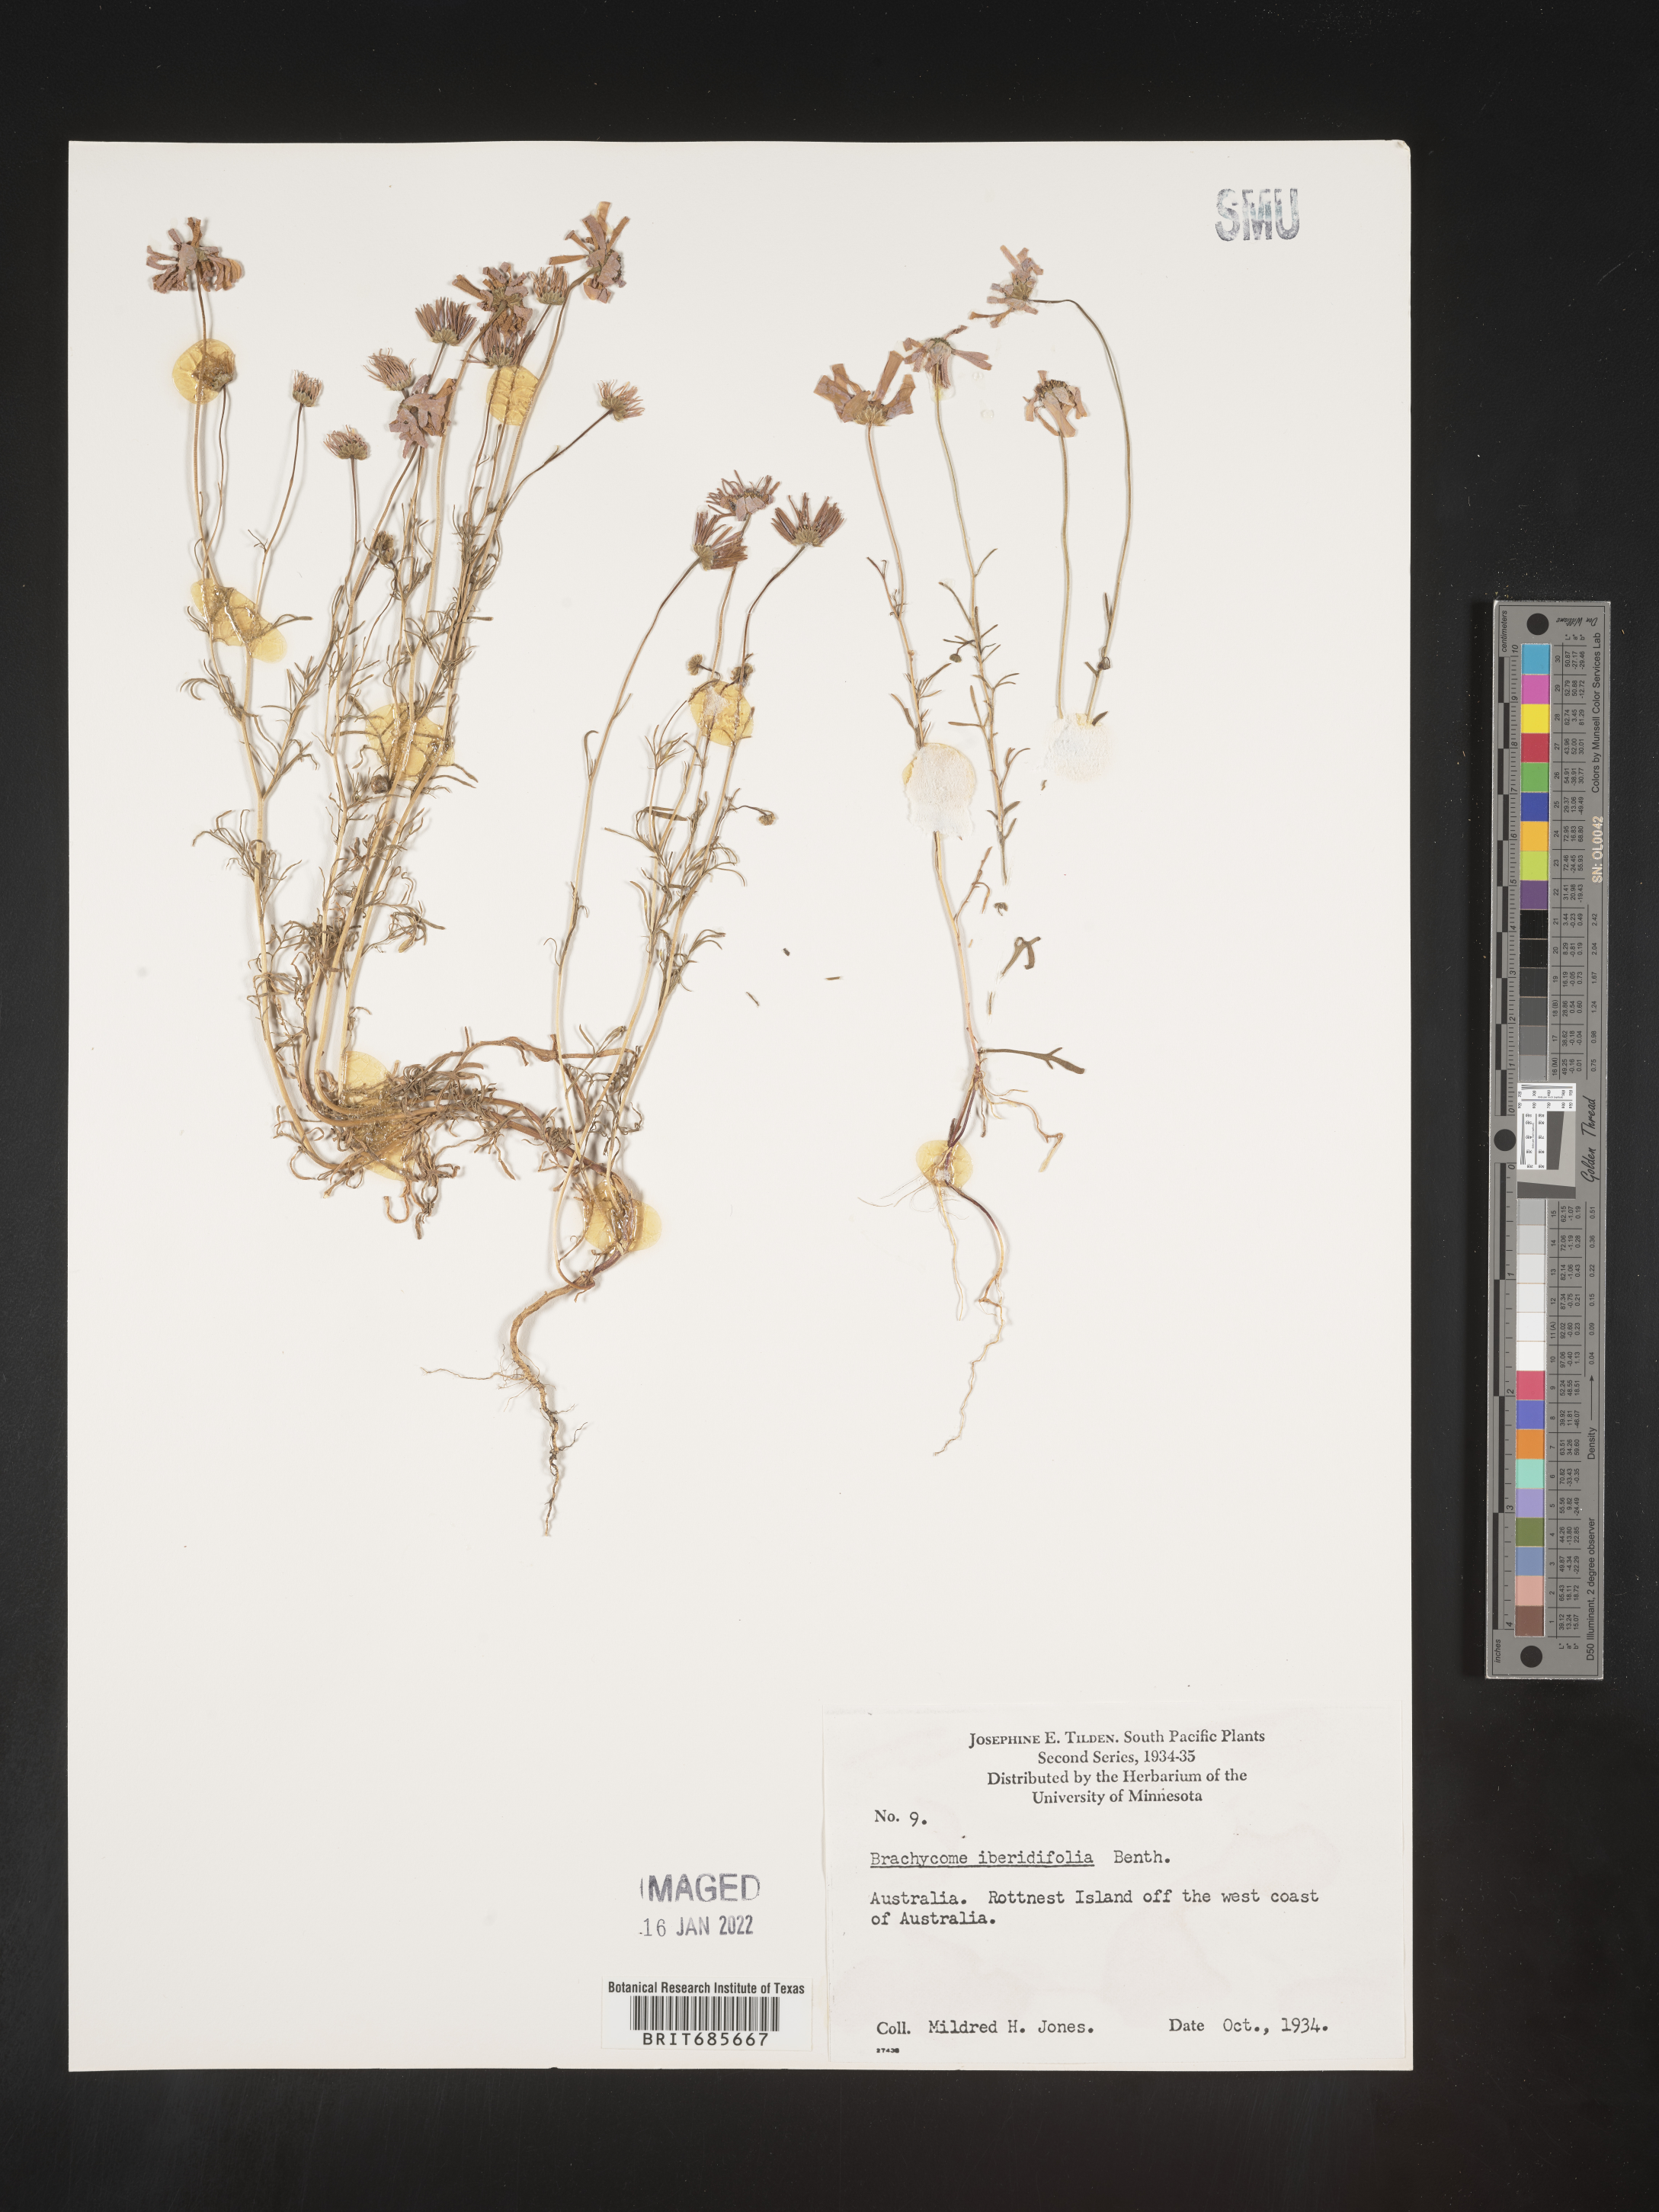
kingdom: Plantae
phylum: Tracheophyta
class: Magnoliopsida
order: Asterales
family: Asteraceae
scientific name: Asteraceae
